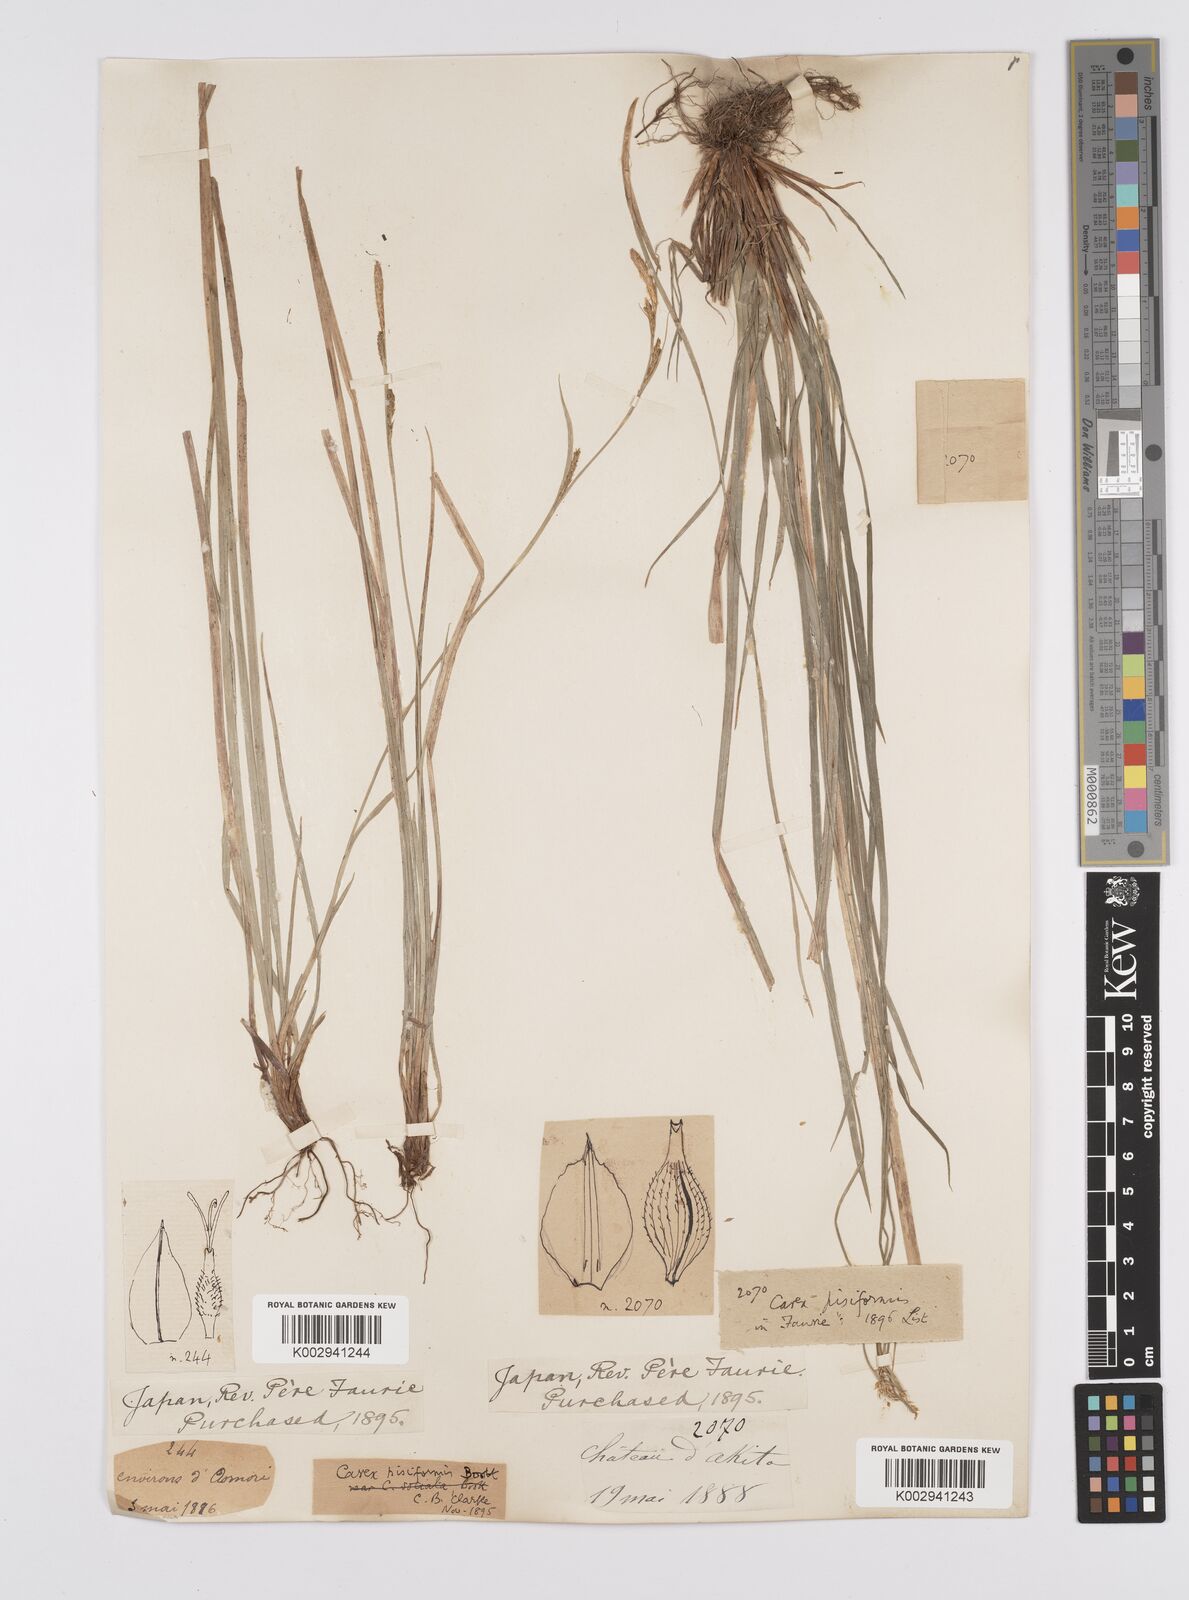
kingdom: Plantae
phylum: Tracheophyta
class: Liliopsida
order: Poales
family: Cyperaceae
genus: Carex
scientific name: Carex pisiformis
